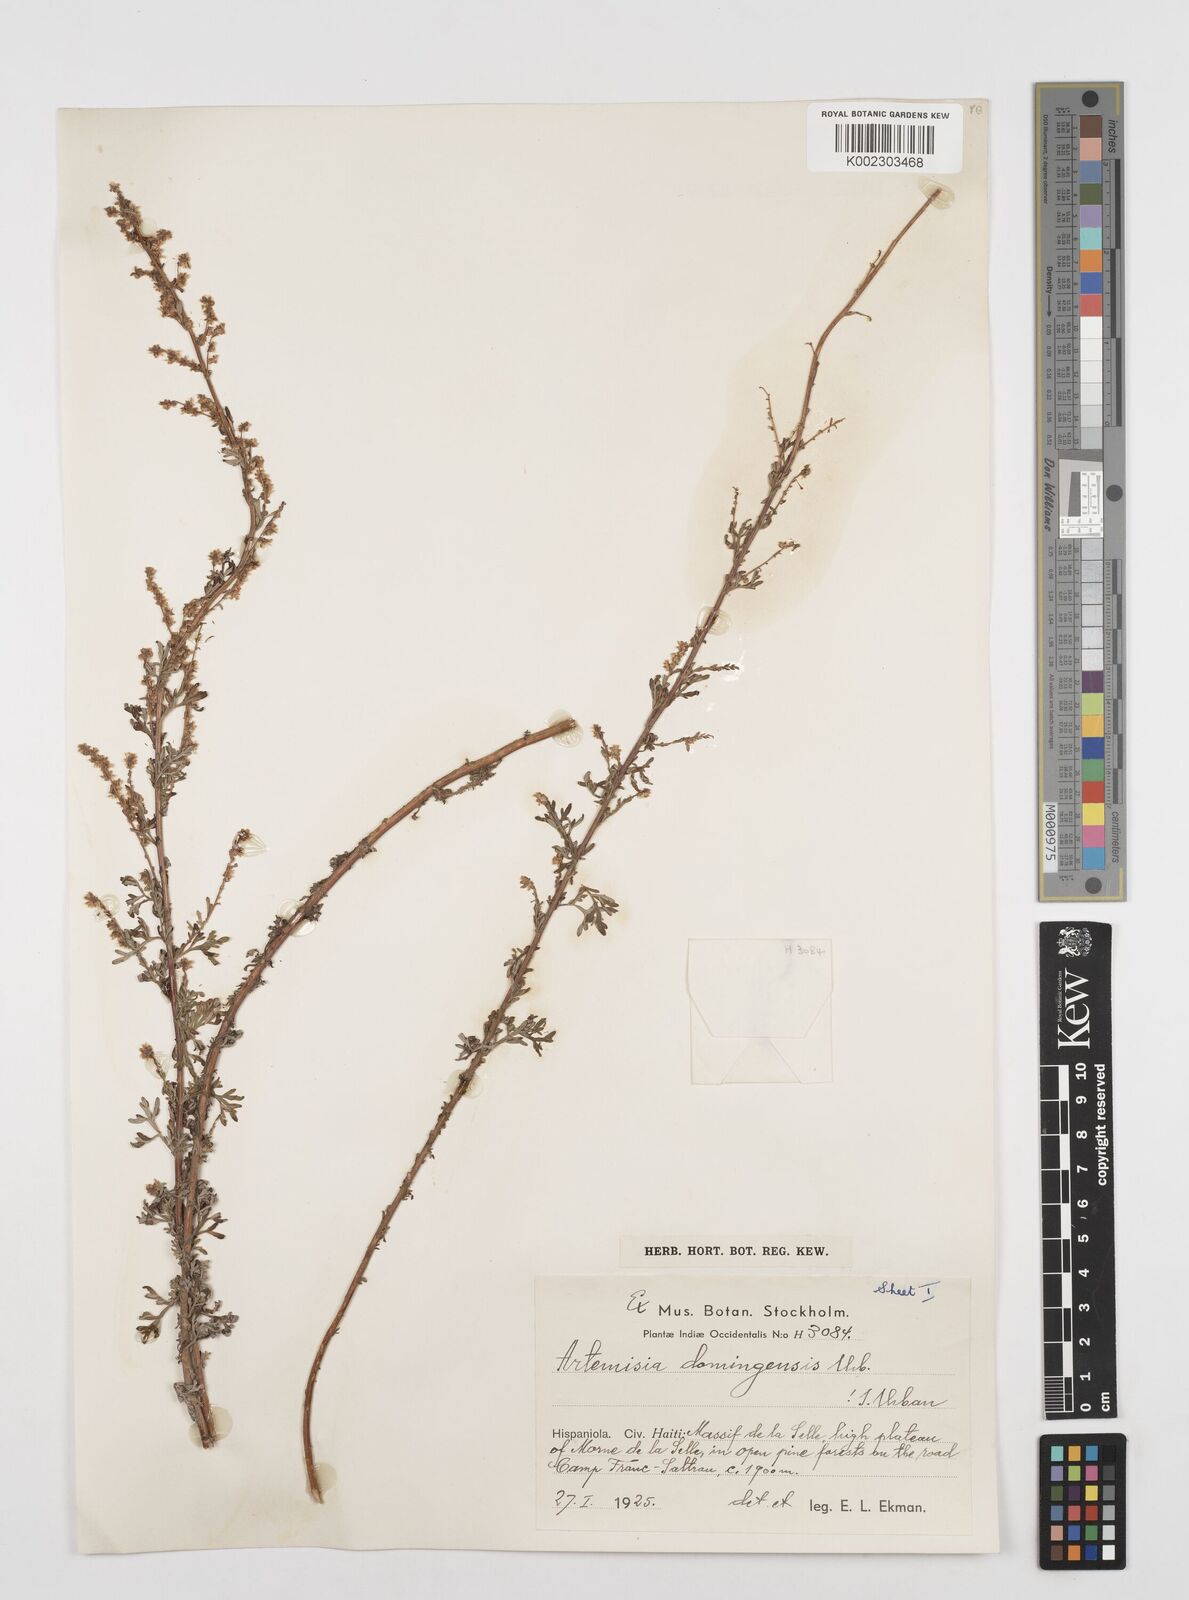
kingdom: Plantae
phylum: Tracheophyta
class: Magnoliopsida
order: Asterales
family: Asteraceae
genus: Artemisia
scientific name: Artemisia domingensis
